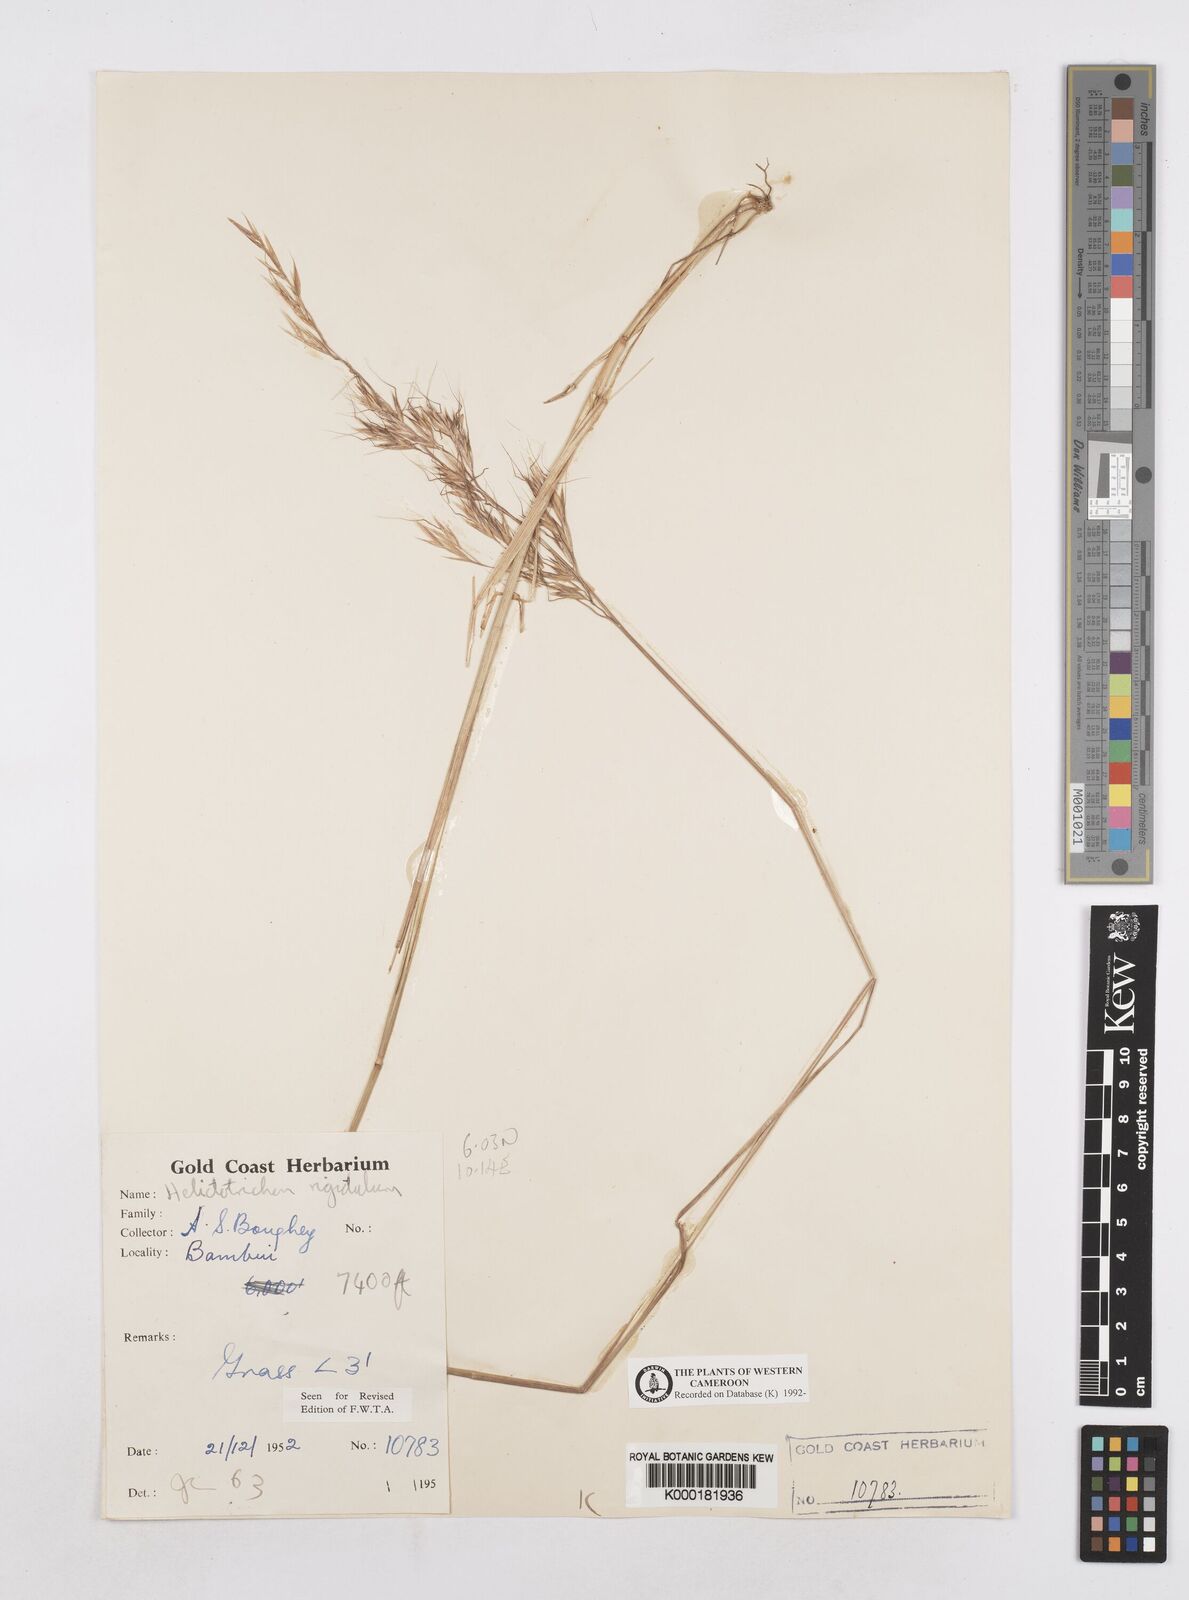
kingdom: Plantae
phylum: Tracheophyta
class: Liliopsida
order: Poales
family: Poaceae
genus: Trisetopsis
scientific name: Trisetopsis elongata
